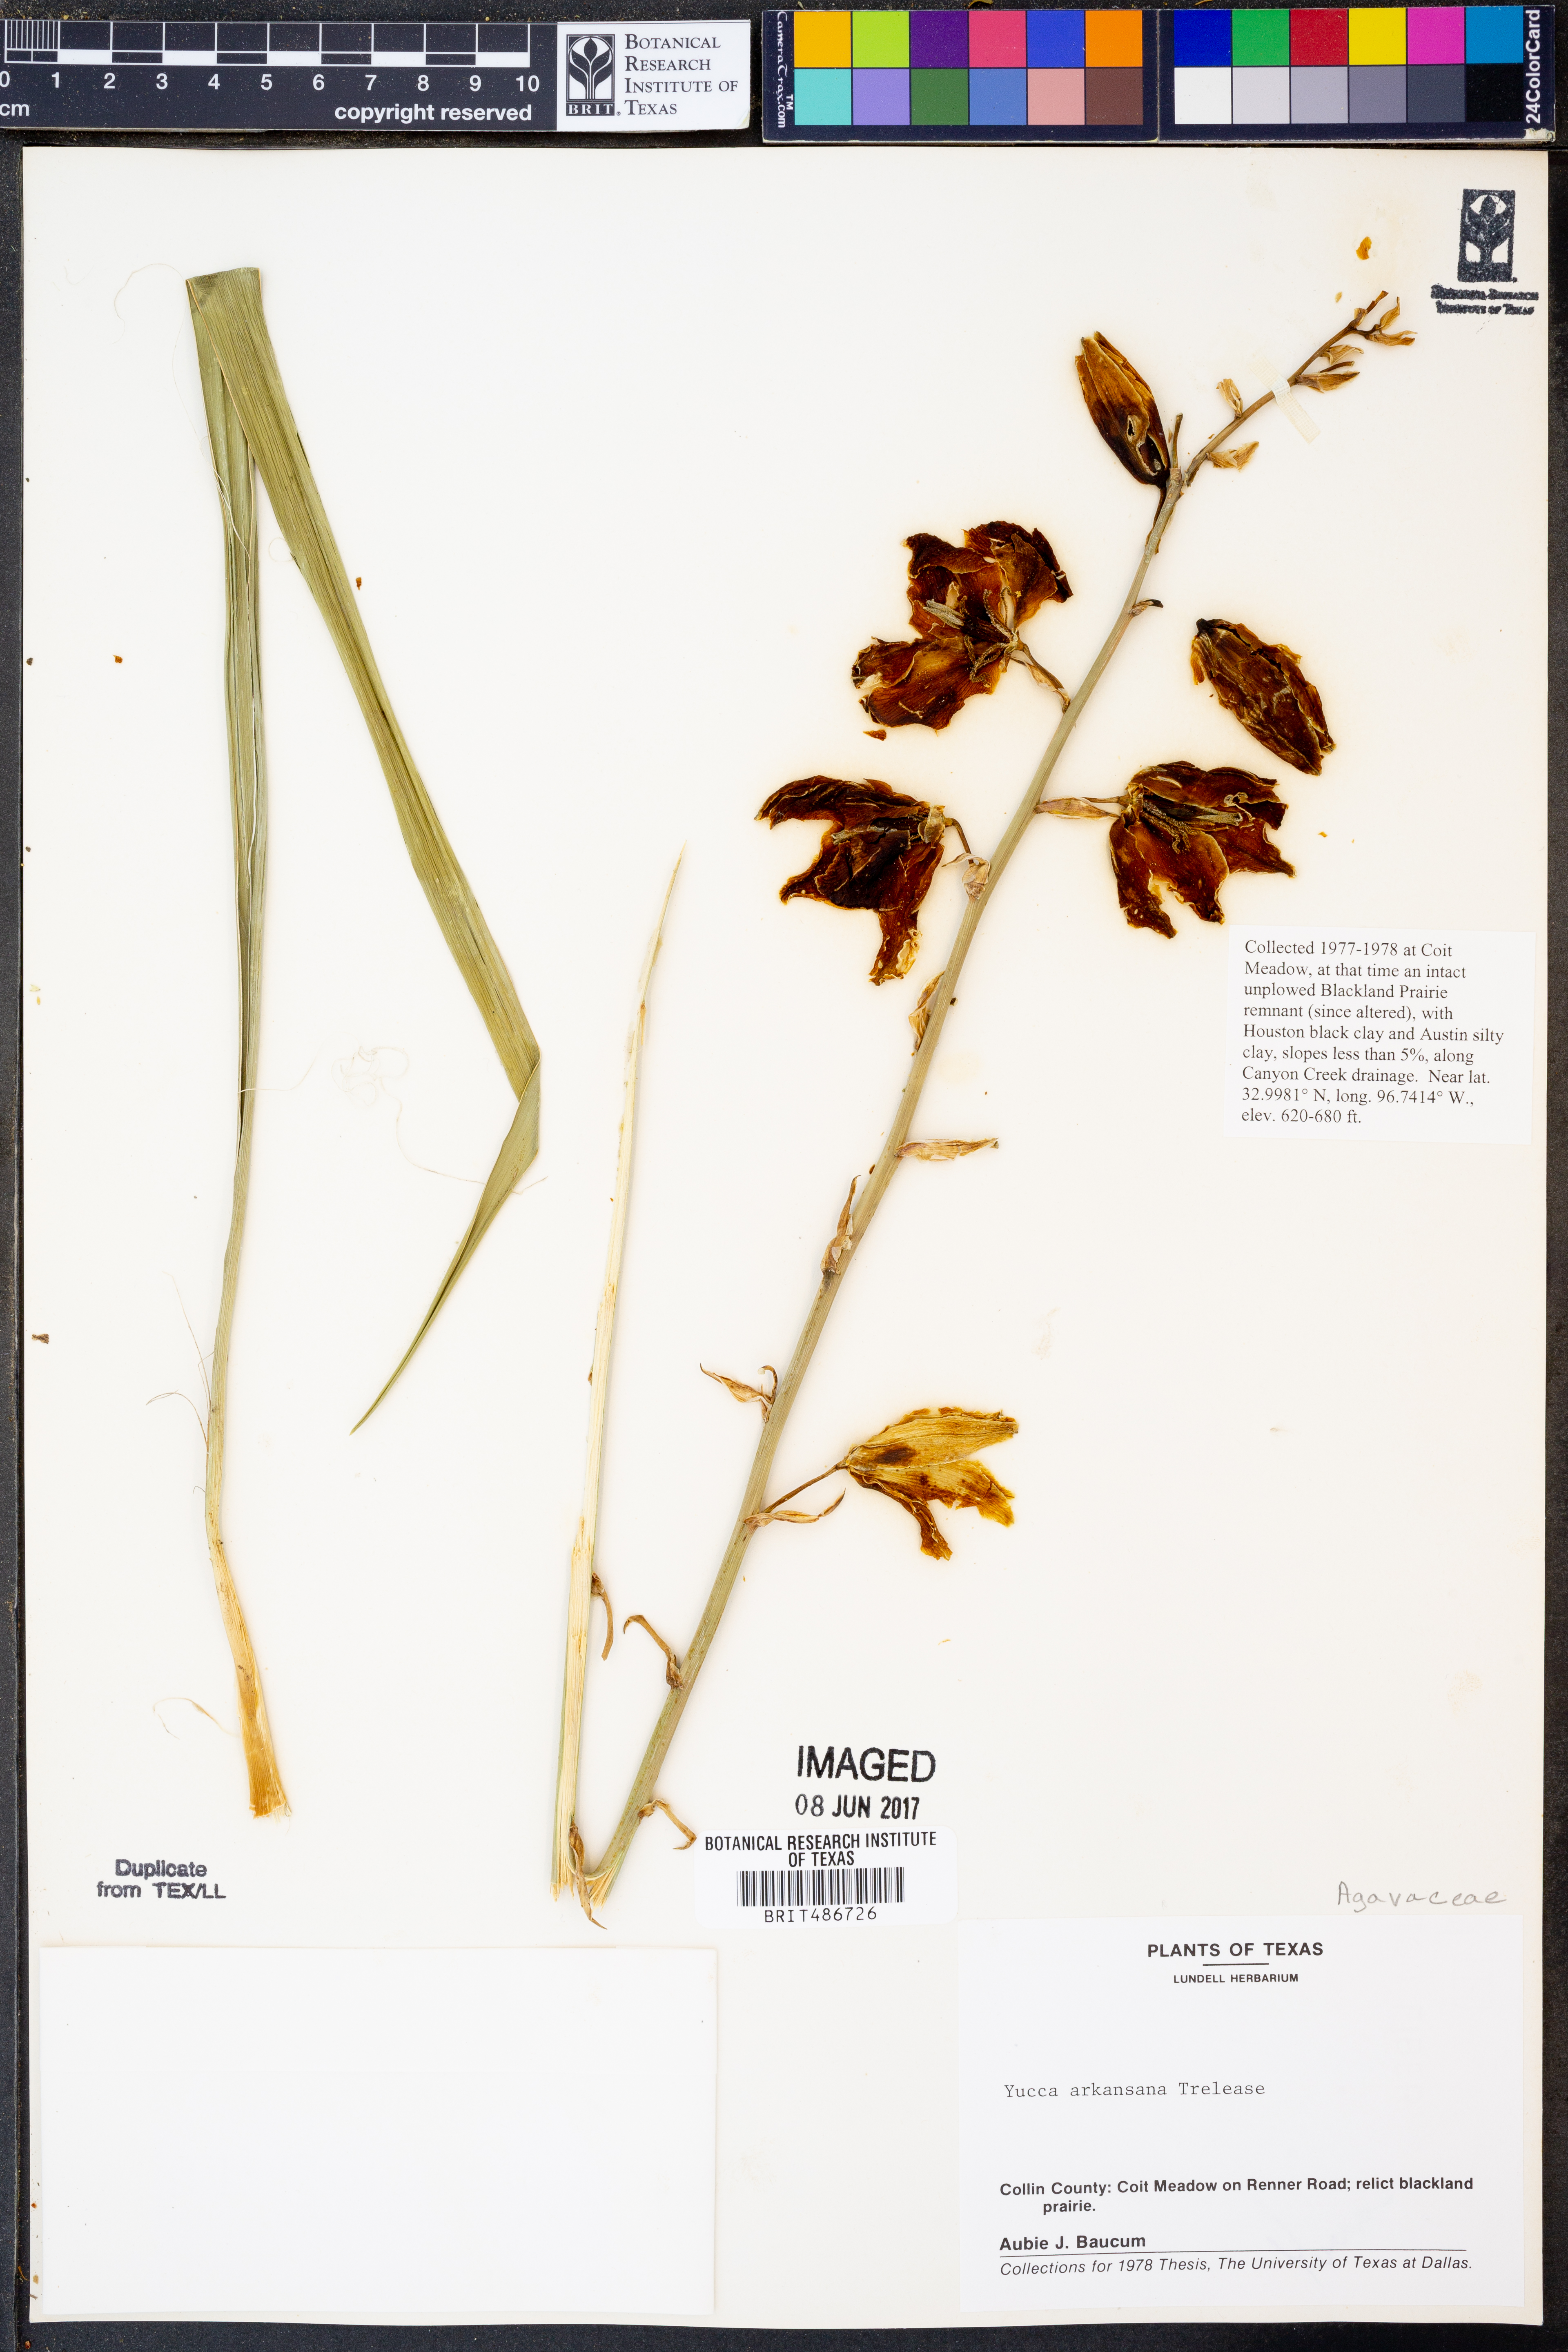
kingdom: Plantae
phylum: Tracheophyta
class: Liliopsida
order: Asparagales
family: Asparagaceae
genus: Yucca
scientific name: Yucca arkansana
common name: Arkansas yucca
